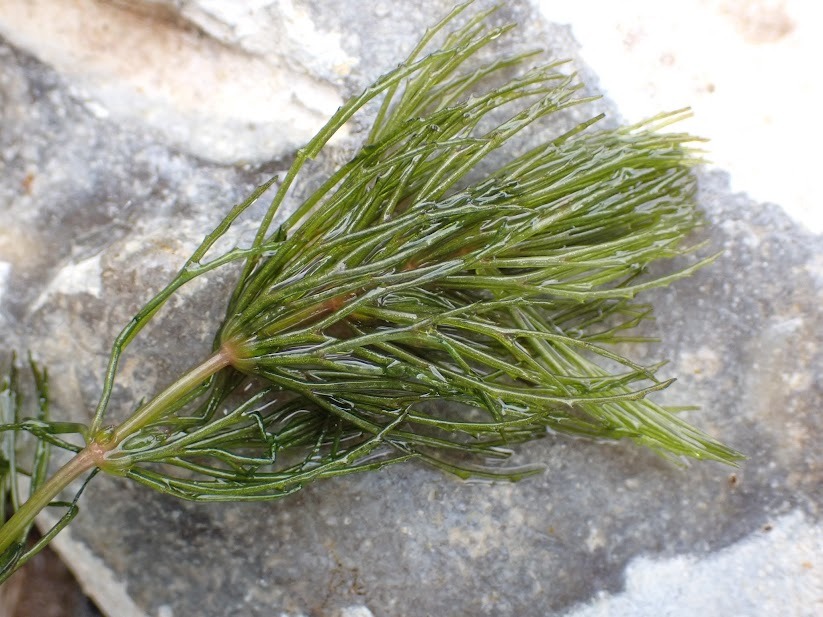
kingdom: Plantae
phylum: Tracheophyta
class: Magnoliopsida
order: Ceratophyllales
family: Ceratophyllaceae
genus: Ceratophyllum
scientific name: Ceratophyllum demersum
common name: Tornfrøet hornblad
